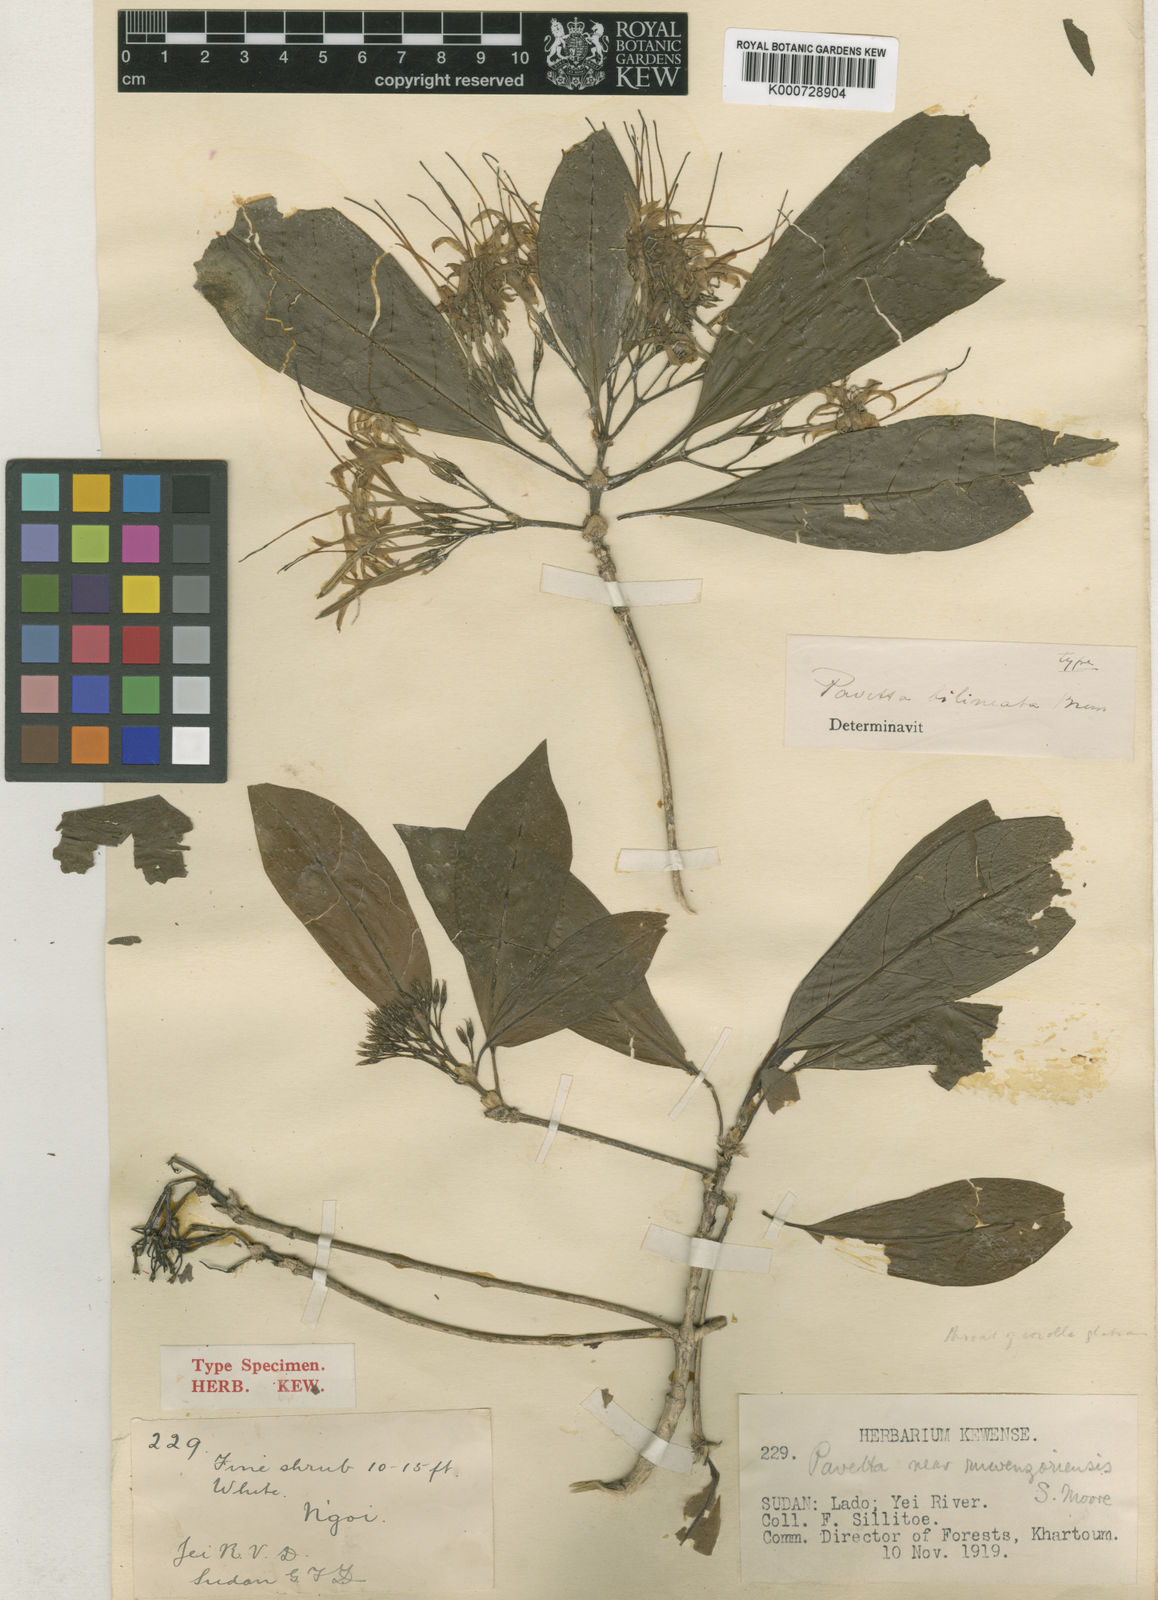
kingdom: Plantae
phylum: Tracheophyta
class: Magnoliopsida
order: Gentianales
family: Rubiaceae
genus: Pavetta
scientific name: Pavetta ruwenzoriensis
